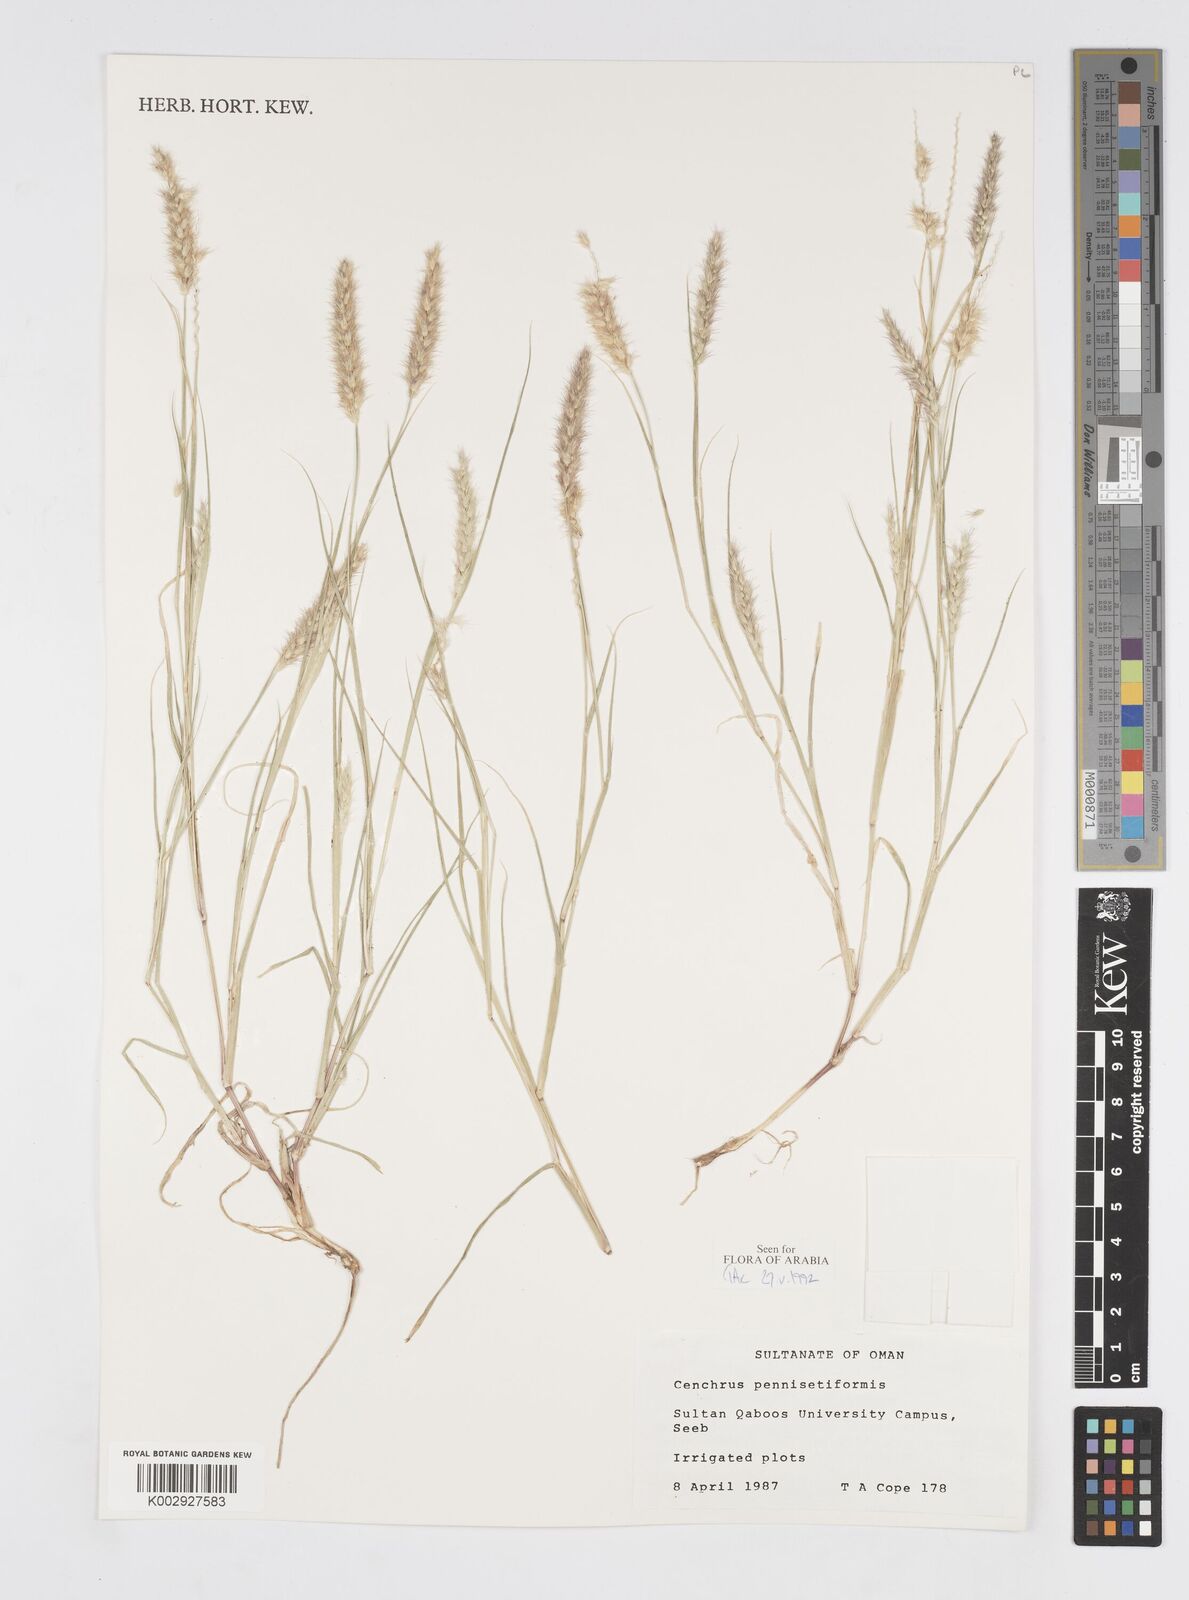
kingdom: Plantae
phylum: Tracheophyta
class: Liliopsida
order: Poales
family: Poaceae
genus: Cenchrus
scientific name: Cenchrus pennisetiformis
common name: Cloncurry
